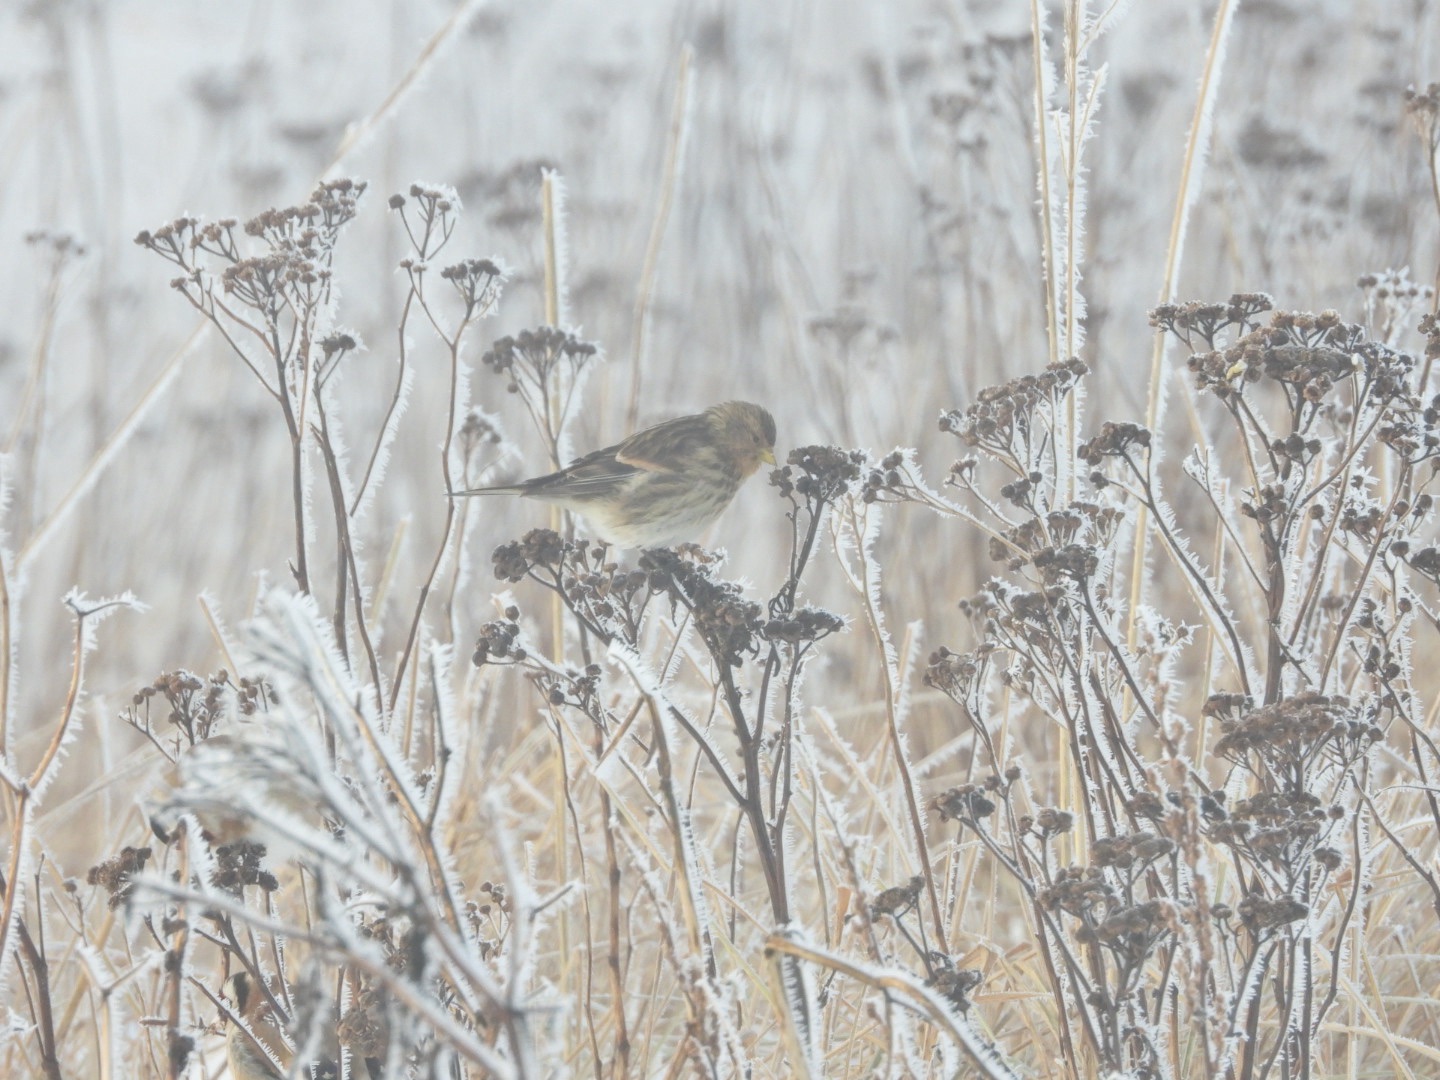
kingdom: Animalia
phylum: Chordata
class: Aves
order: Passeriformes
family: Fringillidae
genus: Linaria
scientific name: Linaria flavirostris
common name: Bjergirisk
